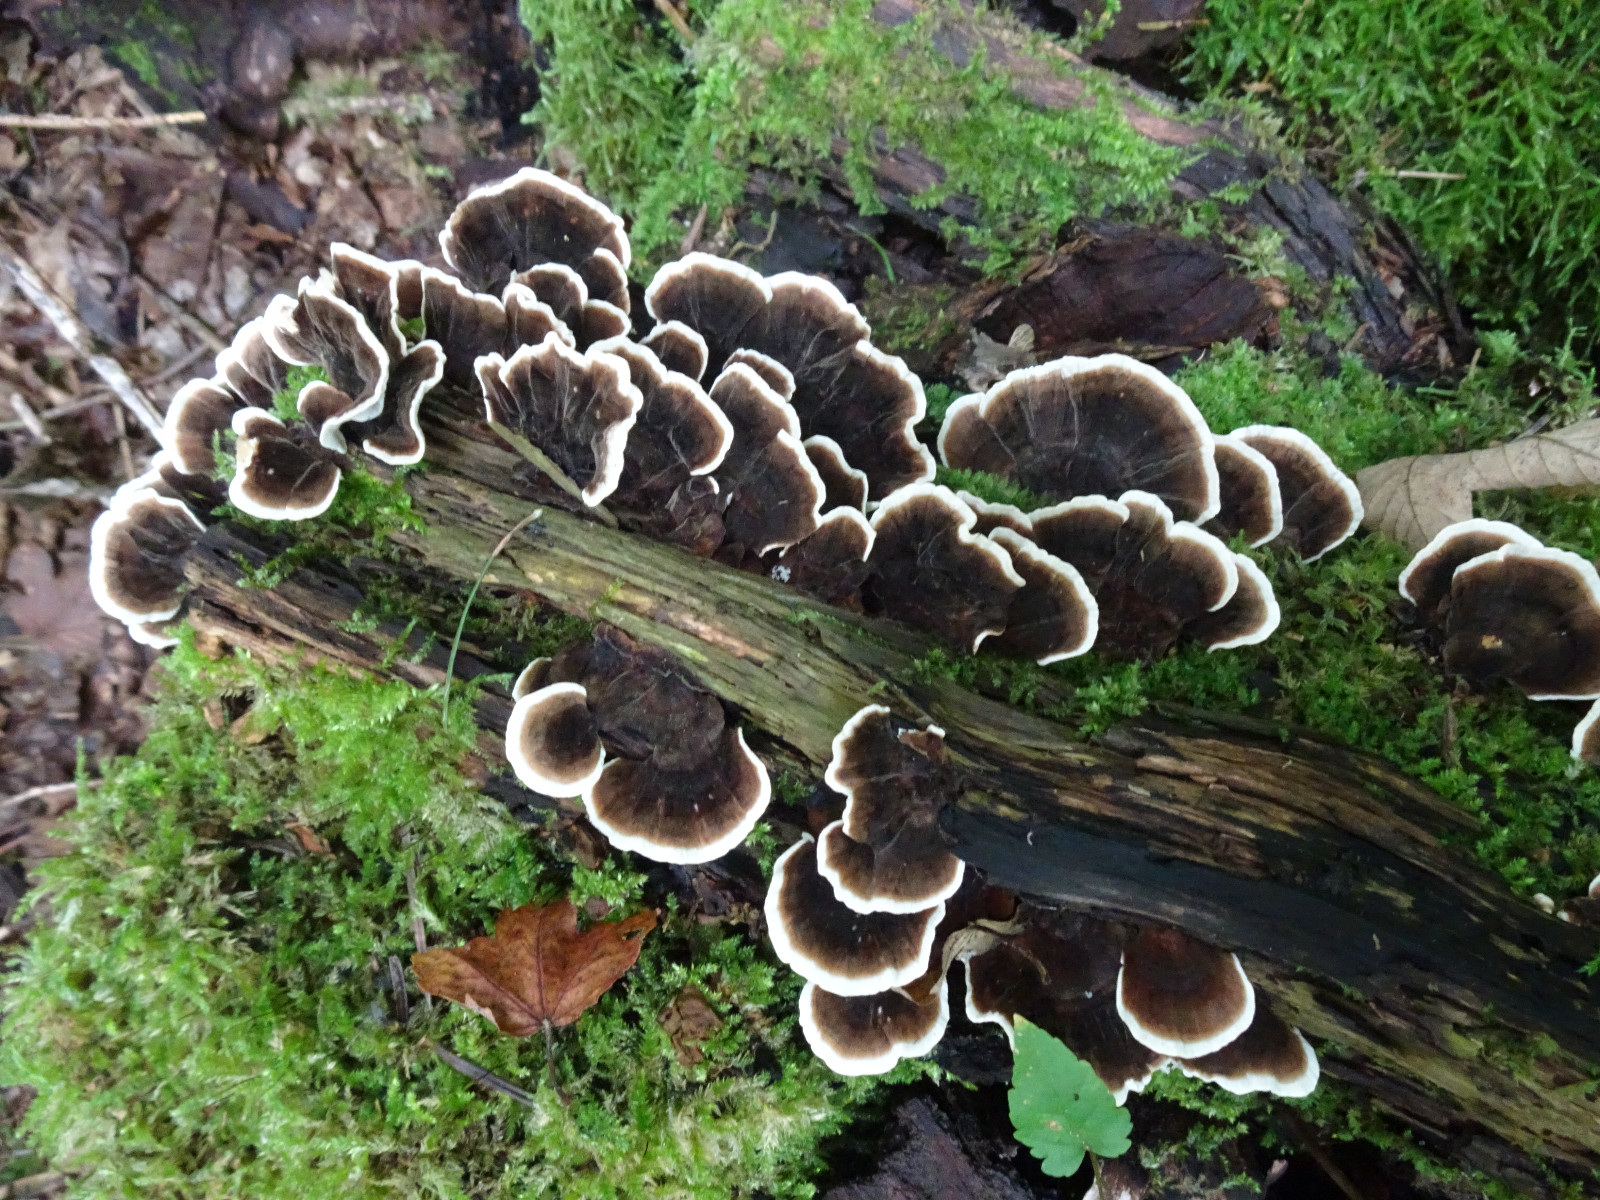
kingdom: Fungi
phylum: Basidiomycota
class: Agaricomycetes
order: Polyporales
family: Polyporaceae
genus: Trametes
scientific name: Trametes versicolor
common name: broget læderporesvamp
